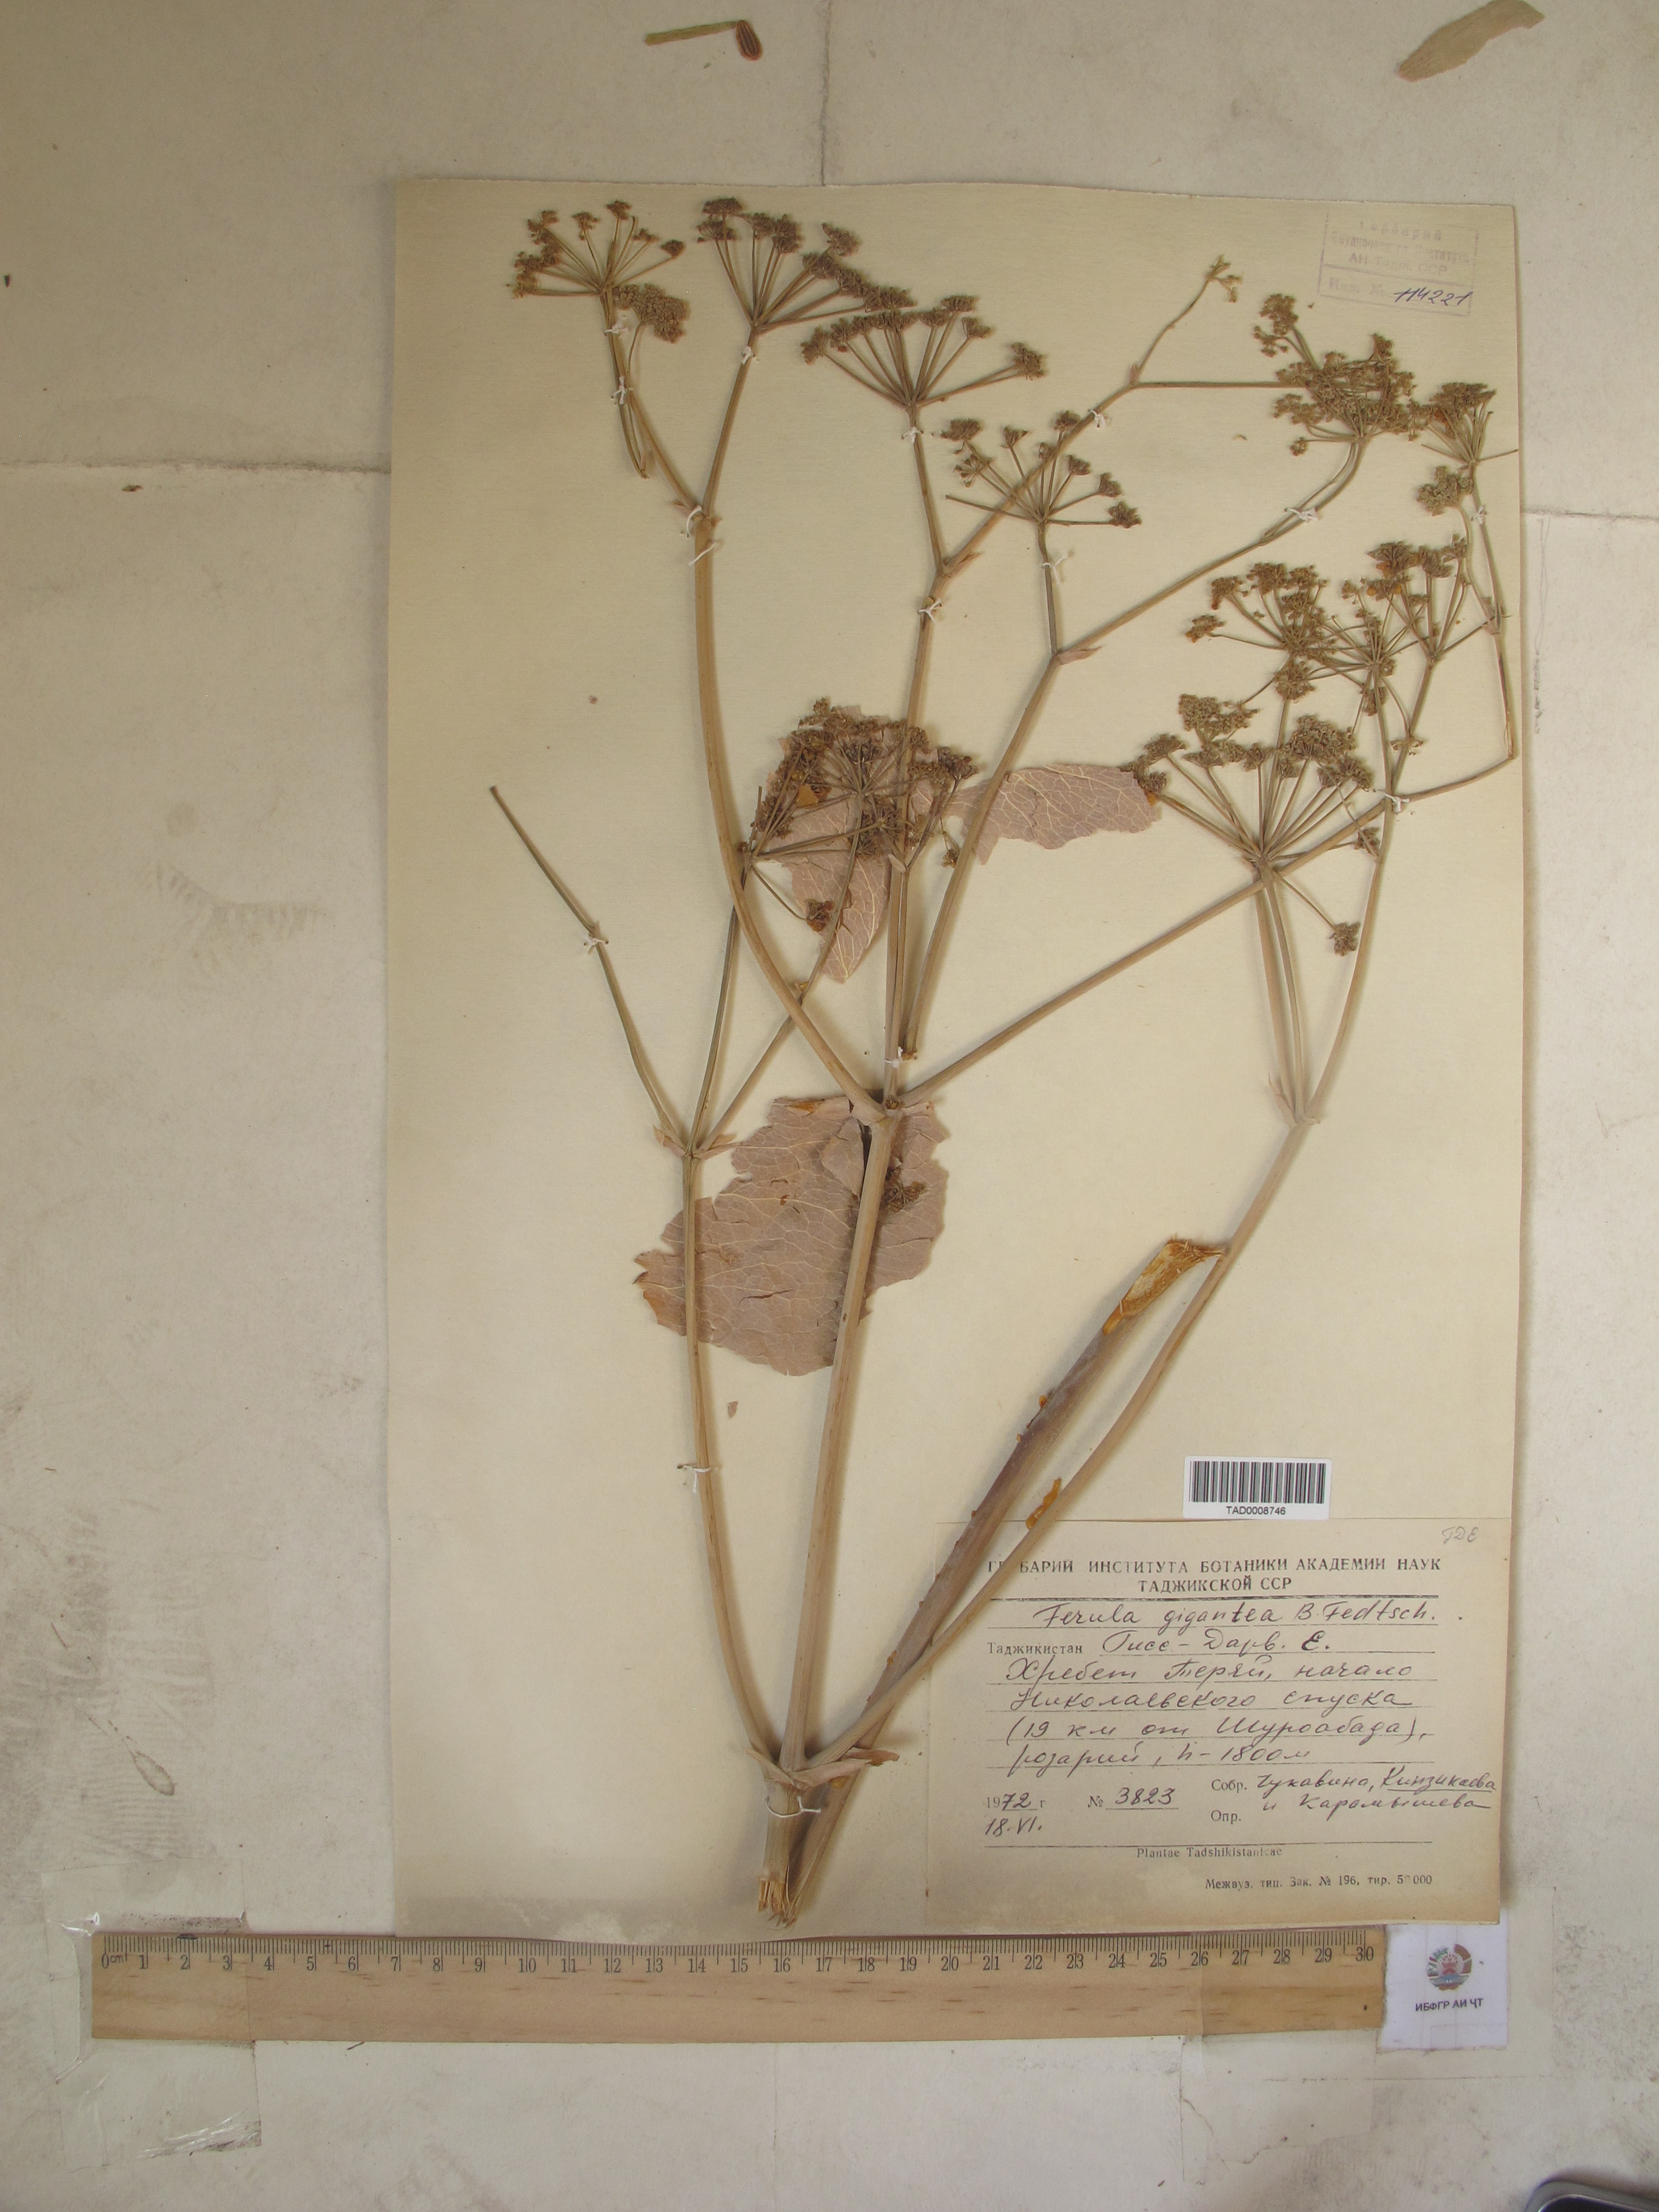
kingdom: Plantae
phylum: Tracheophyta
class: Magnoliopsida
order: Apiales
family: Apiaceae
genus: Ferula
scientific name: Ferula gigantea
